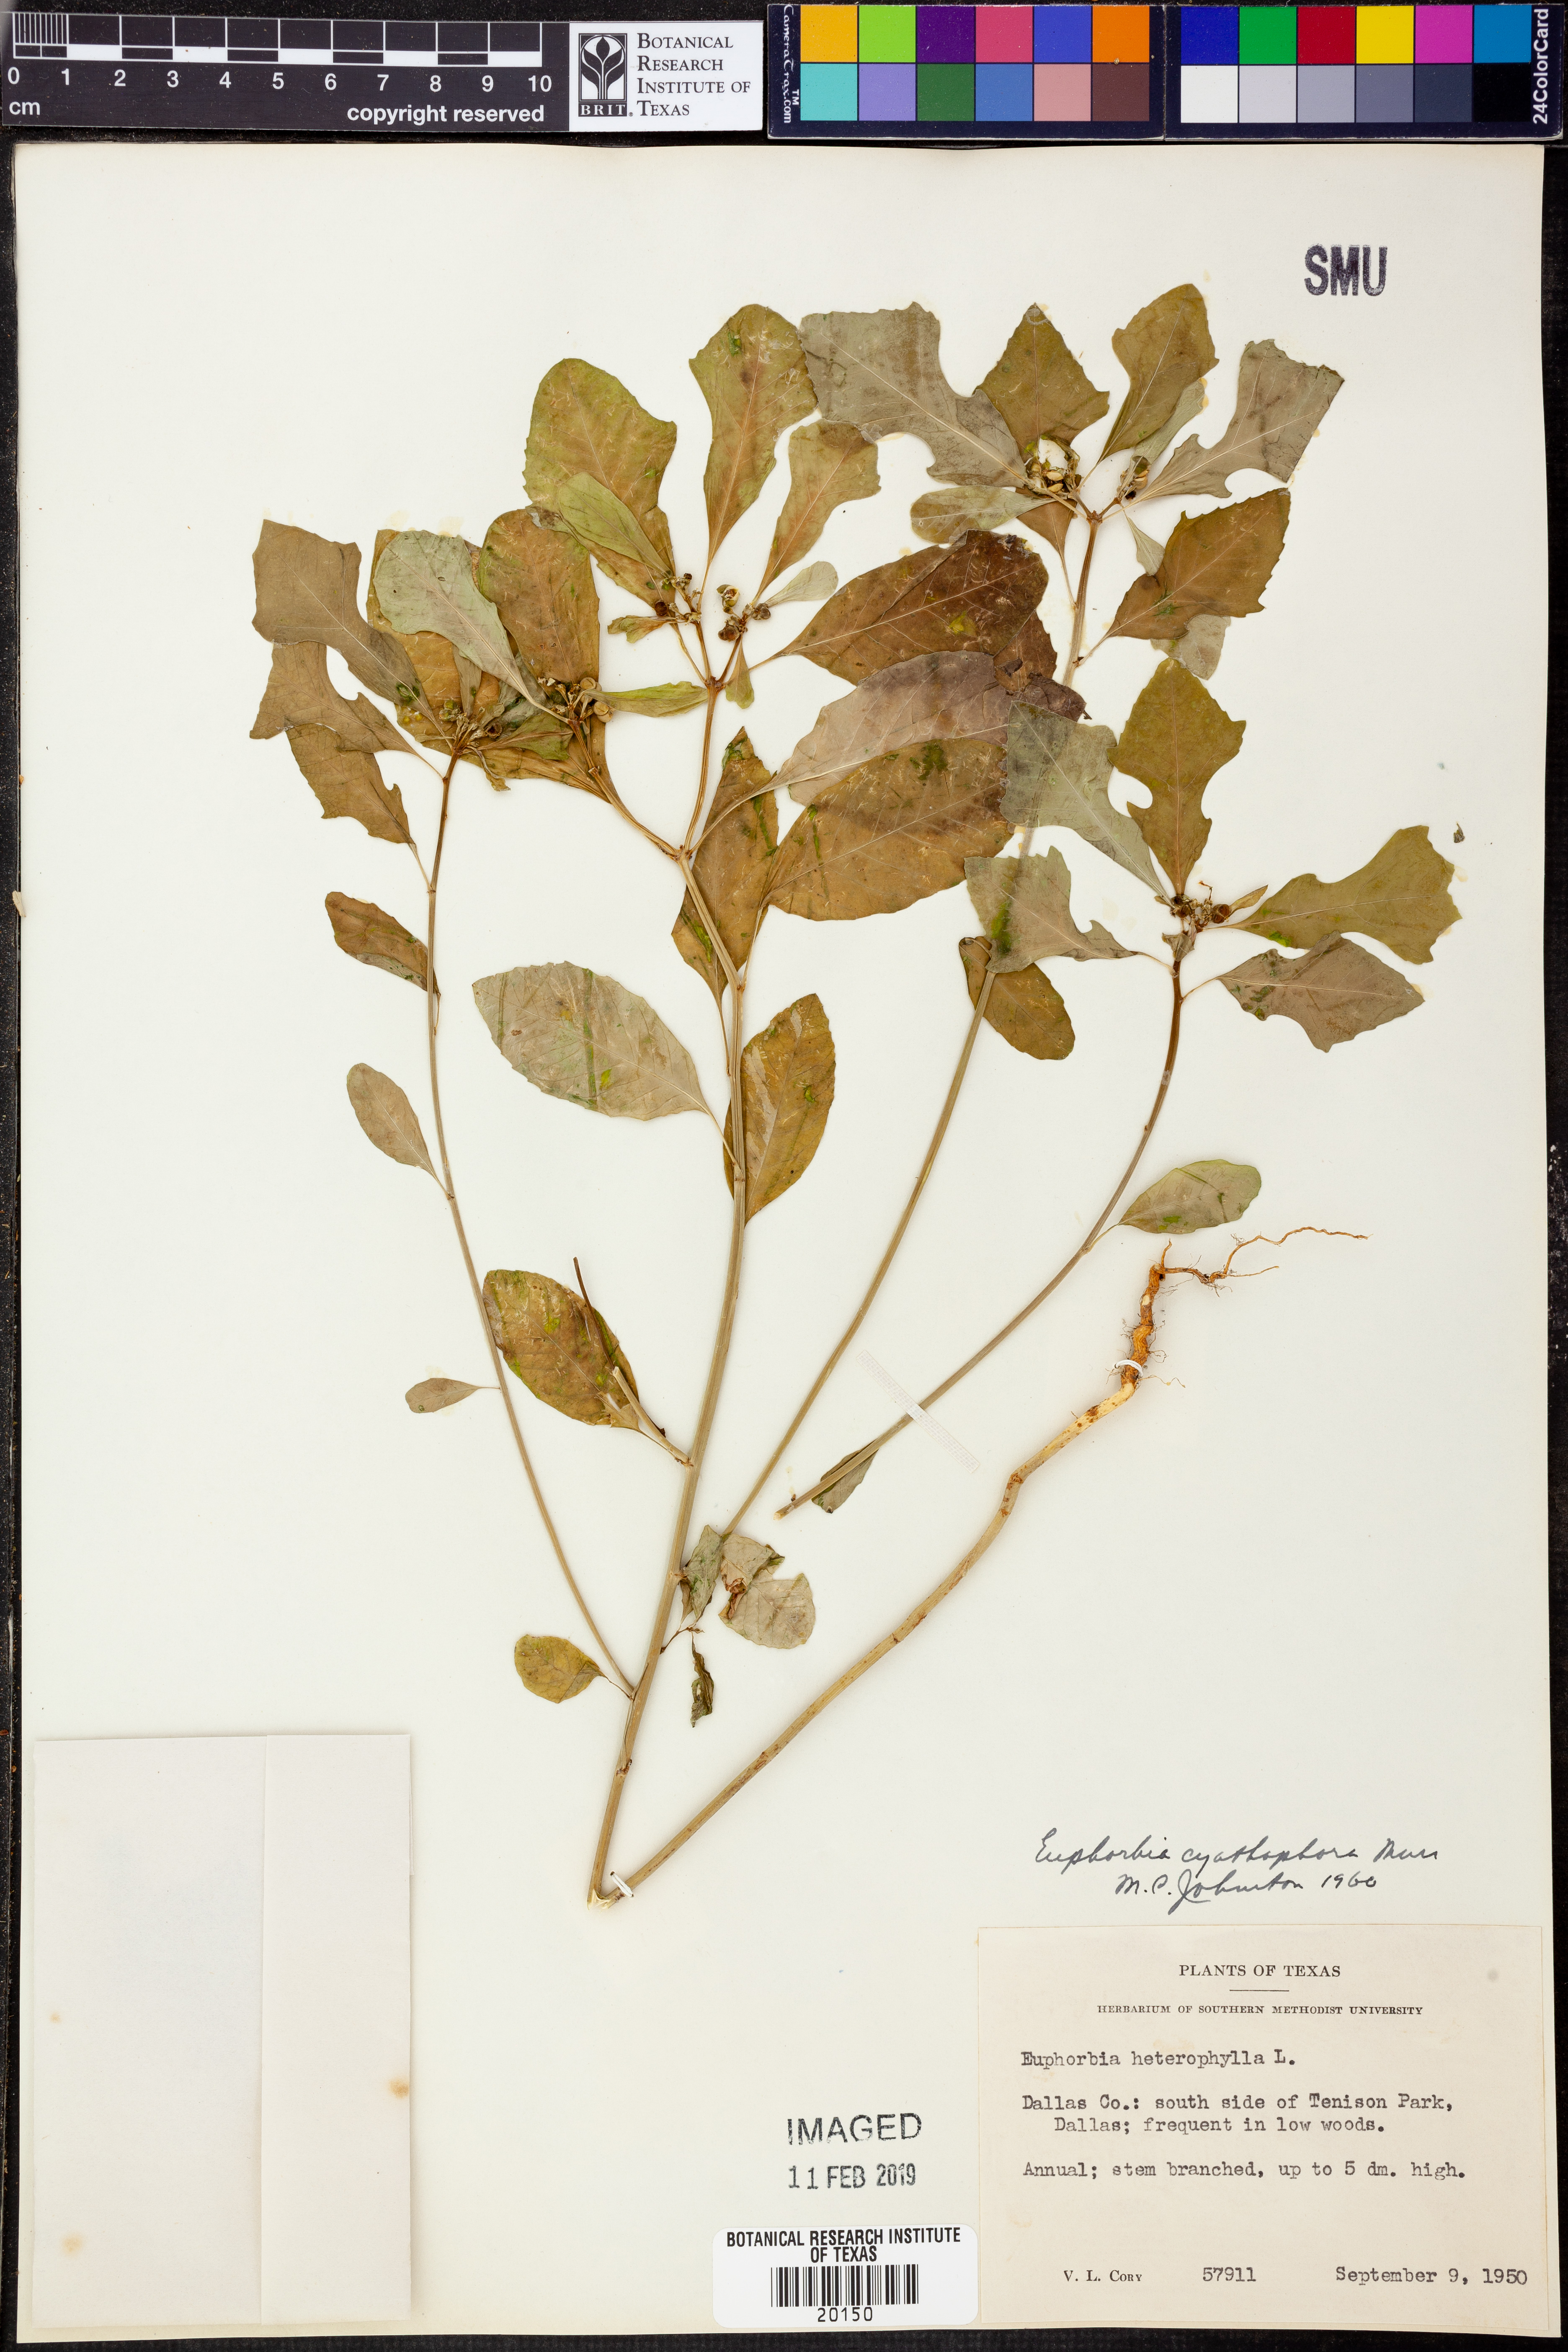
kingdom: Plantae
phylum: Tracheophyta
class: Magnoliopsida
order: Malpighiales
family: Euphorbiaceae
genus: Euphorbia
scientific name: Euphorbia heterophylla
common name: Mexican fireplant
